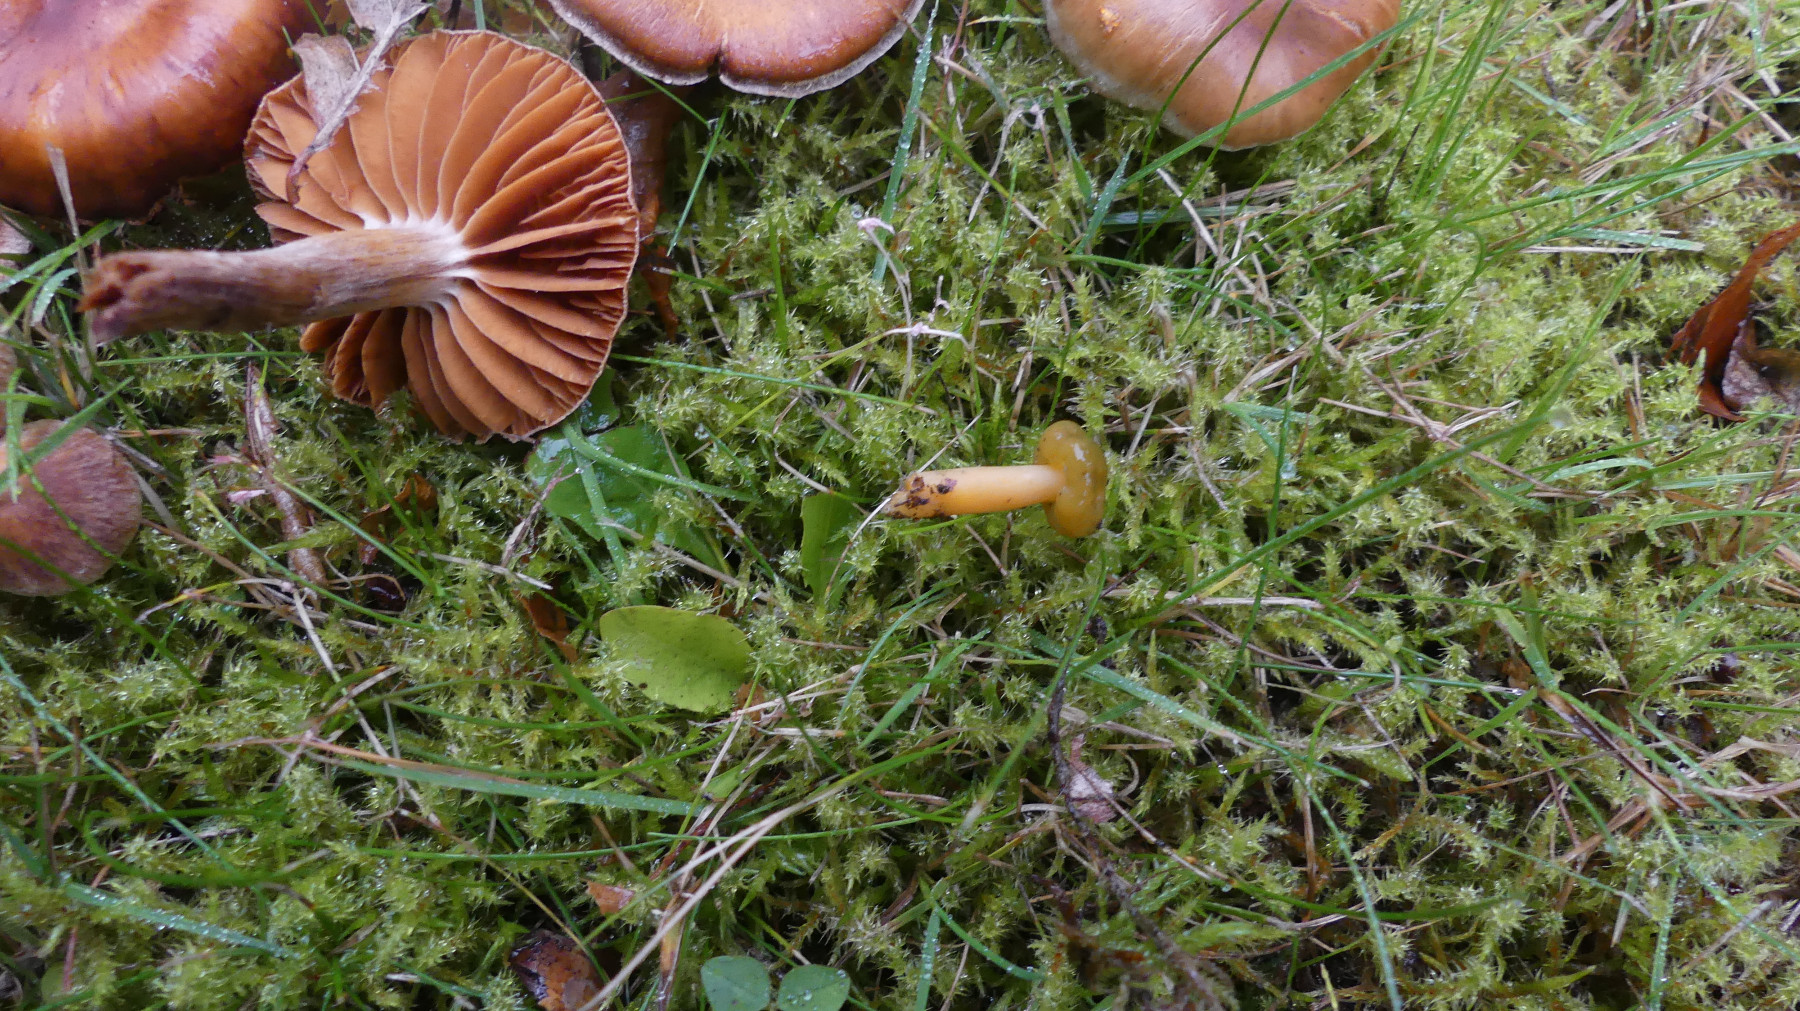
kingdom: Fungi
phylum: Ascomycota
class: Leotiomycetes
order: Leotiales
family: Leotiaceae
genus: Leotia
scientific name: Leotia lubrica
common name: ravsvamp
